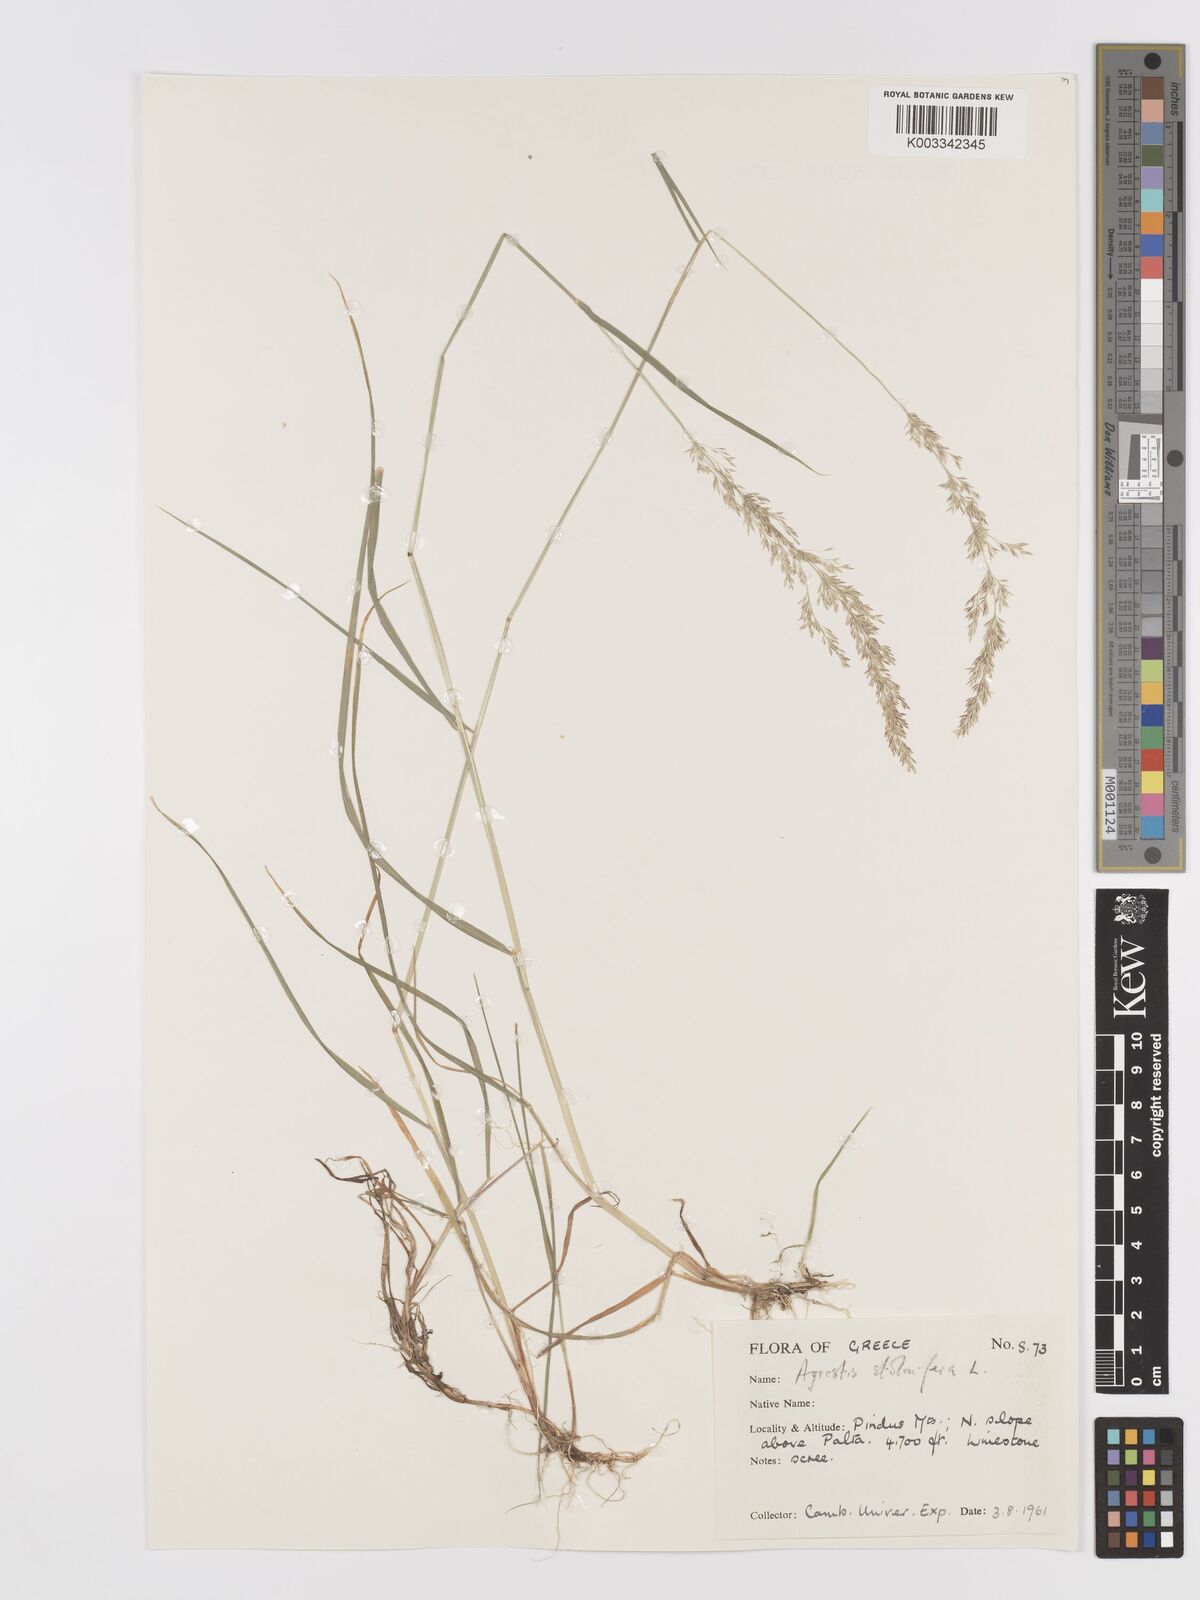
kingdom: Plantae
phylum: Tracheophyta
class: Liliopsida
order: Poales
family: Poaceae
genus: Agrostis
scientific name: Agrostis gigantea
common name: Black bent
